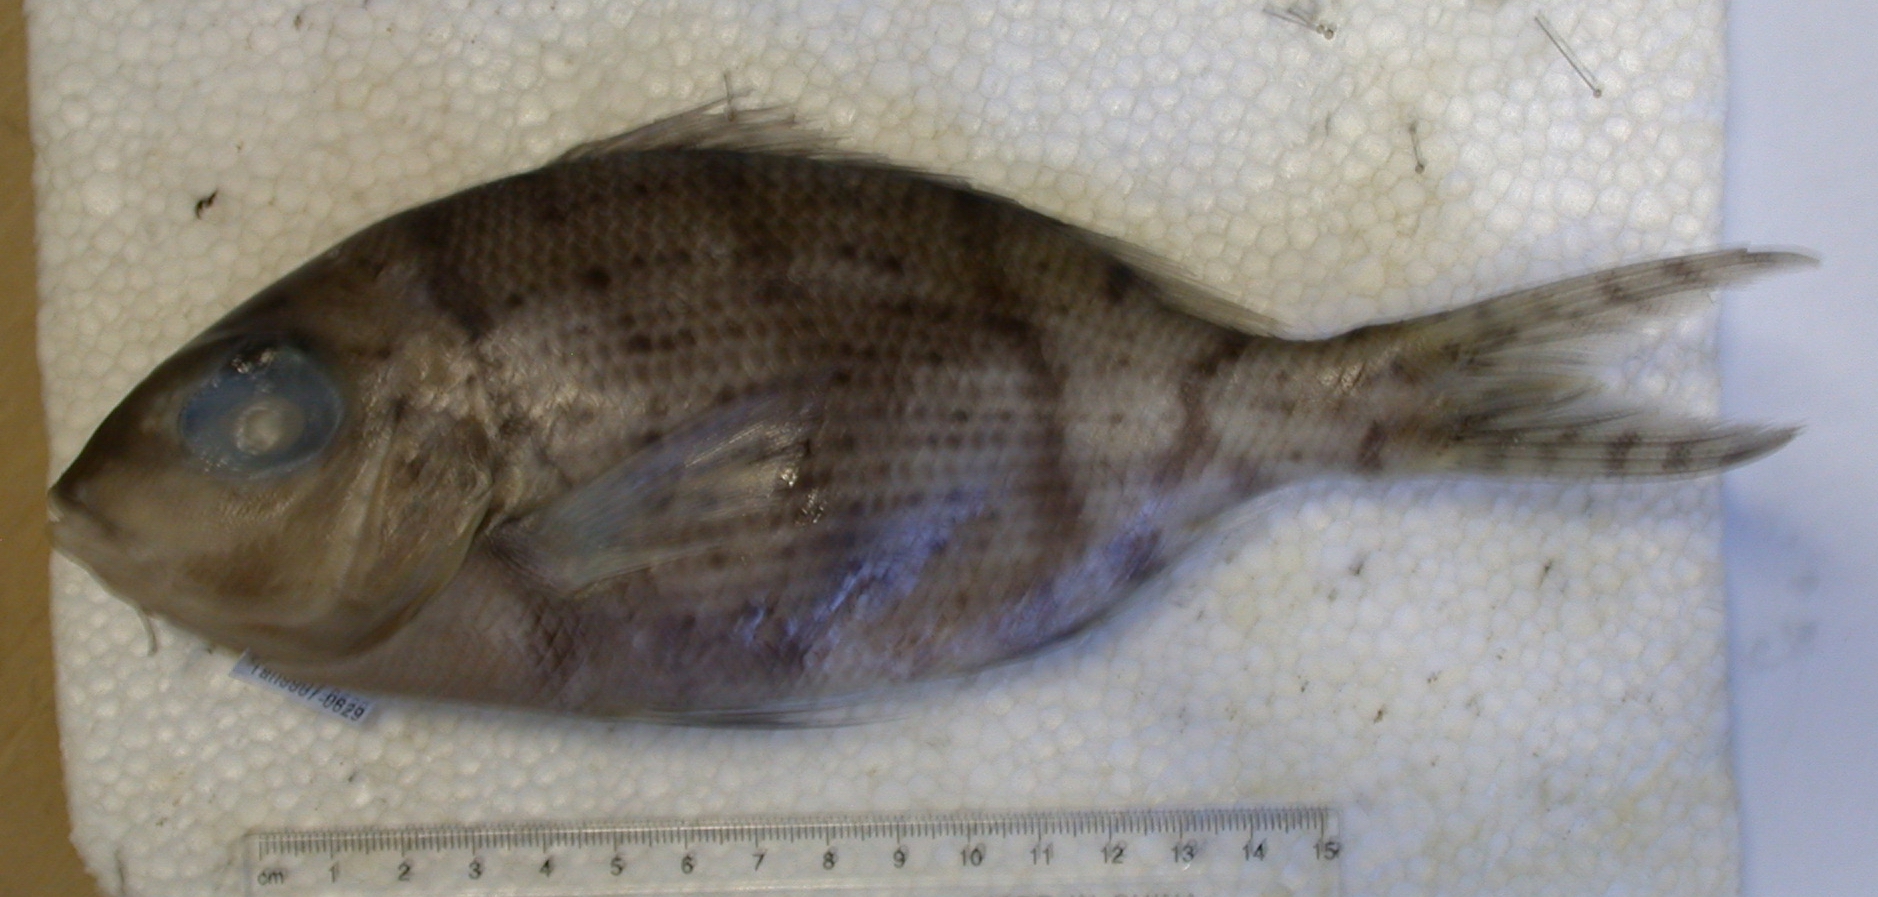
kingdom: Animalia
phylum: Chordata
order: Perciformes
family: Lethrinidae
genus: Gymnocranius
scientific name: Gymnocranius grandoculis
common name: Blue-lined large-eye bream
